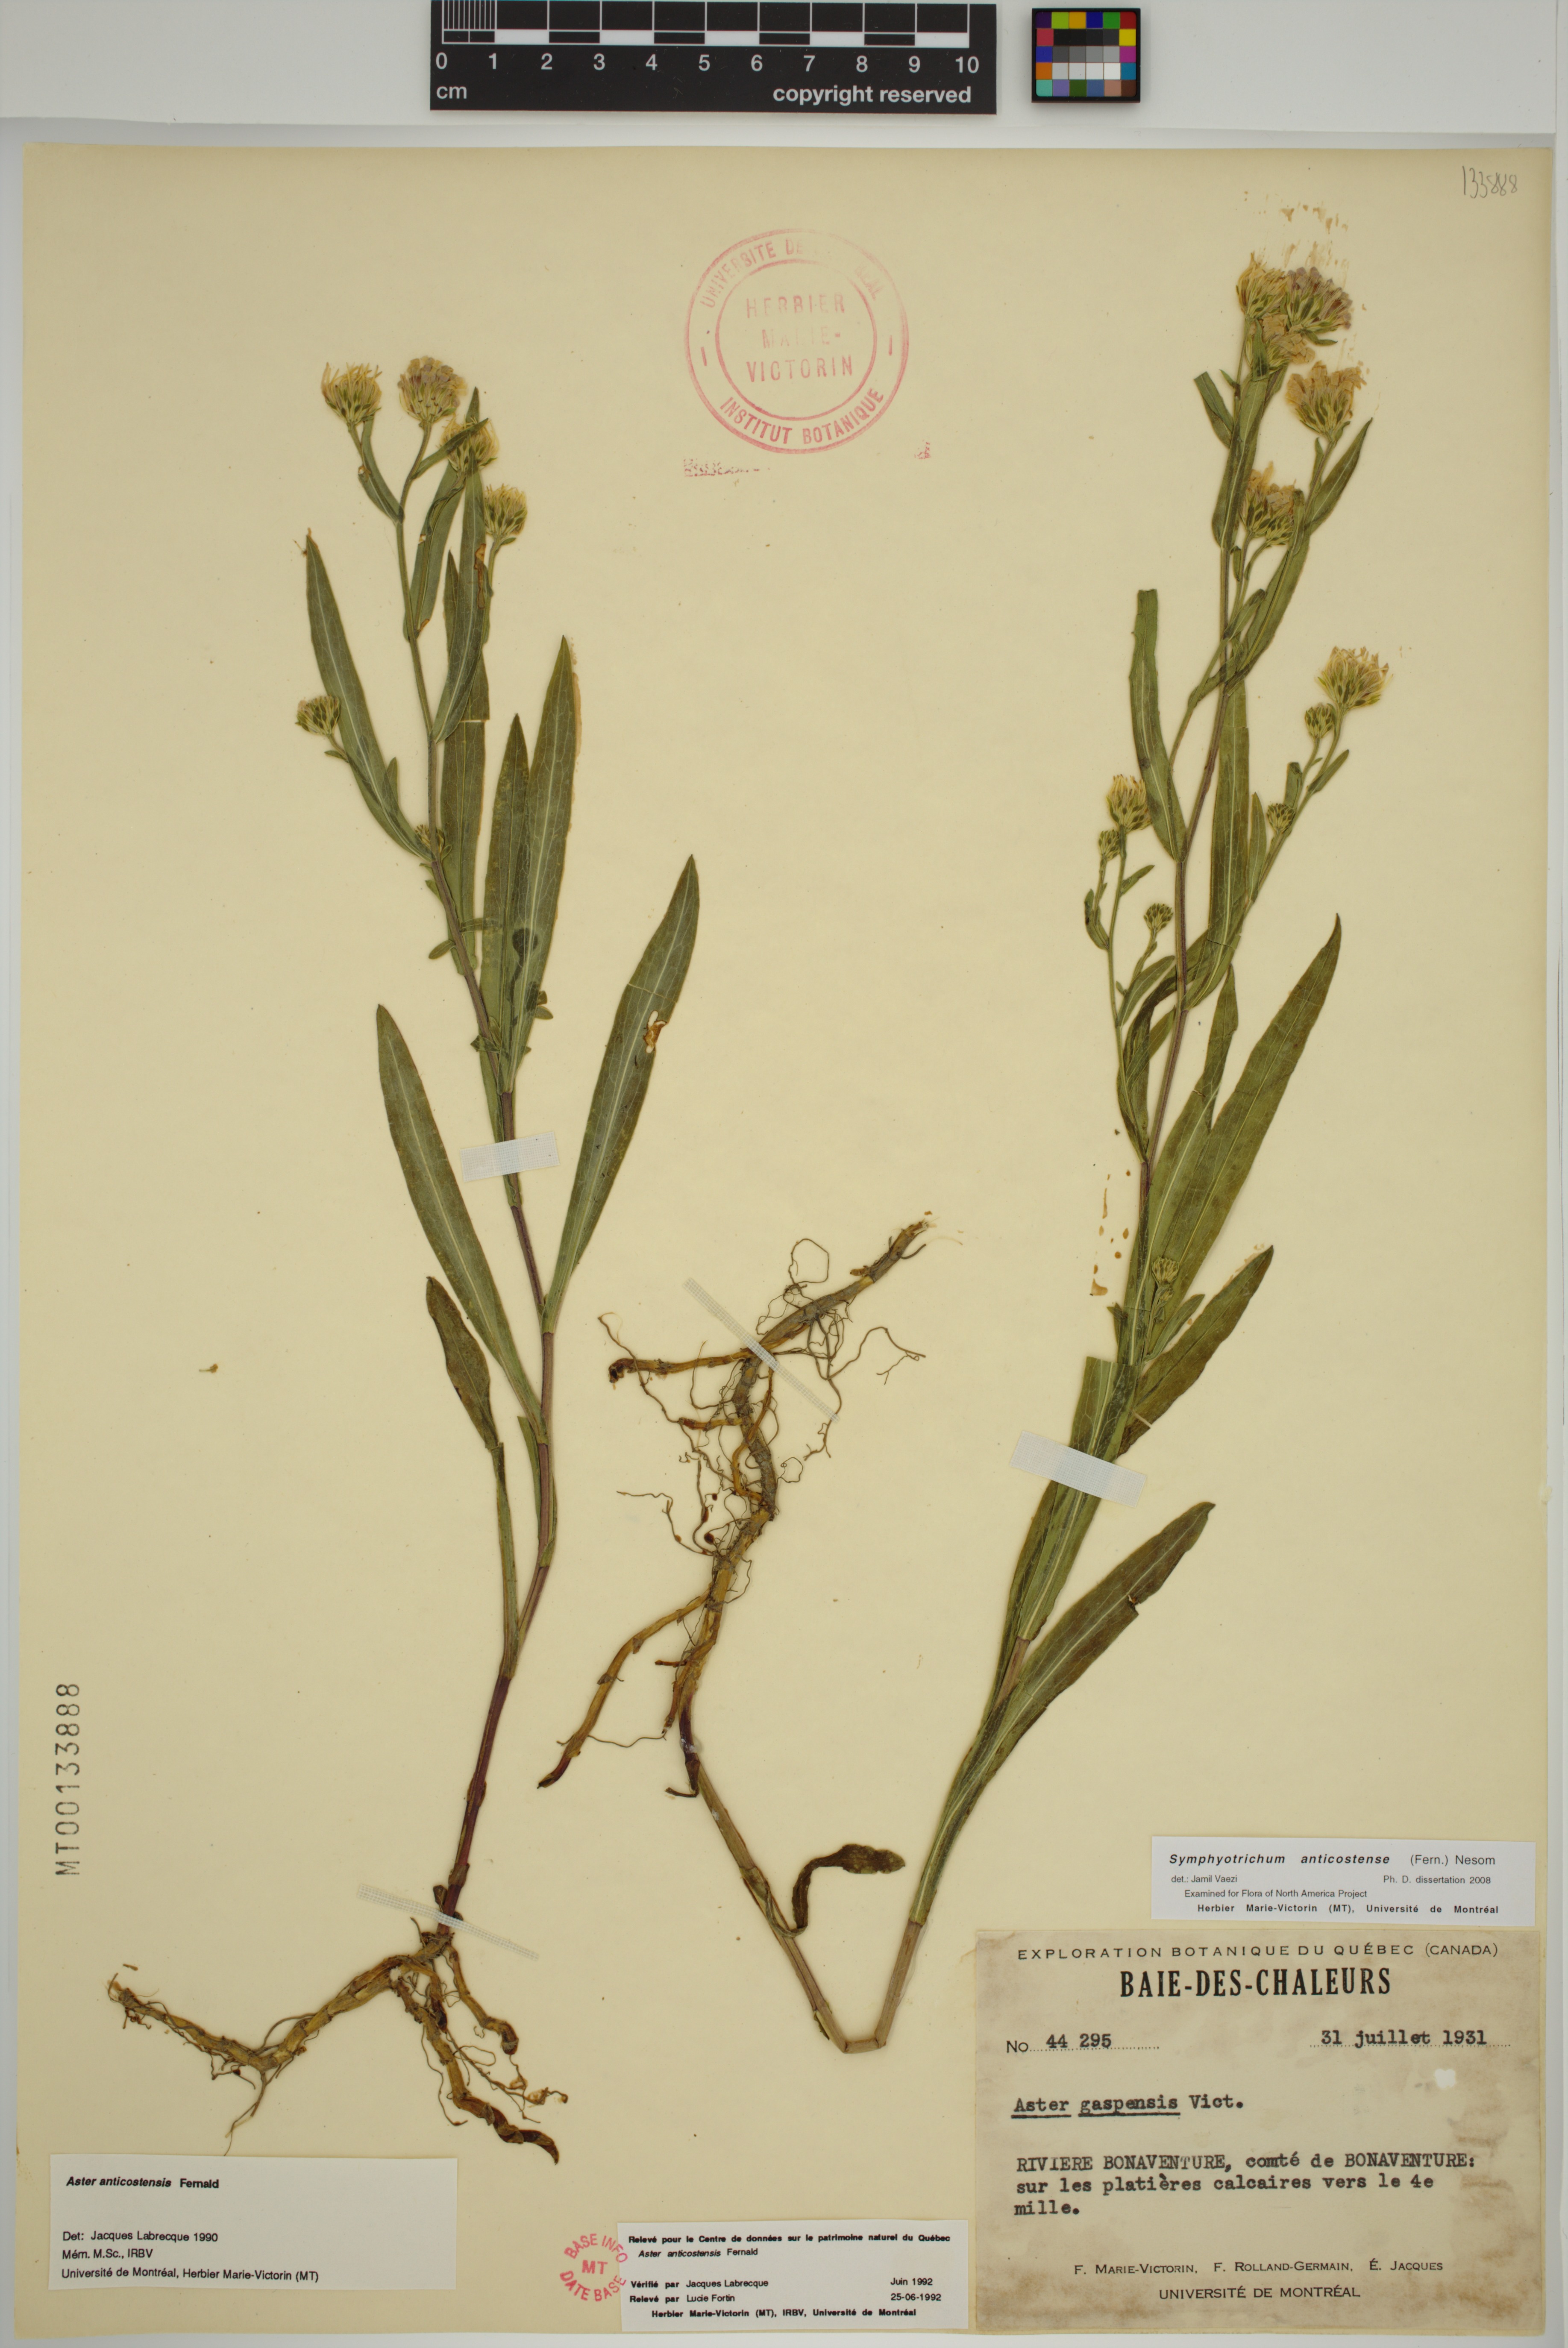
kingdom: Plantae
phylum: Tracheophyta
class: Magnoliopsida
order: Asterales
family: Asteraceae
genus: Symphyotrichum
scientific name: Symphyotrichum anticostense
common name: Anticosti island aster
